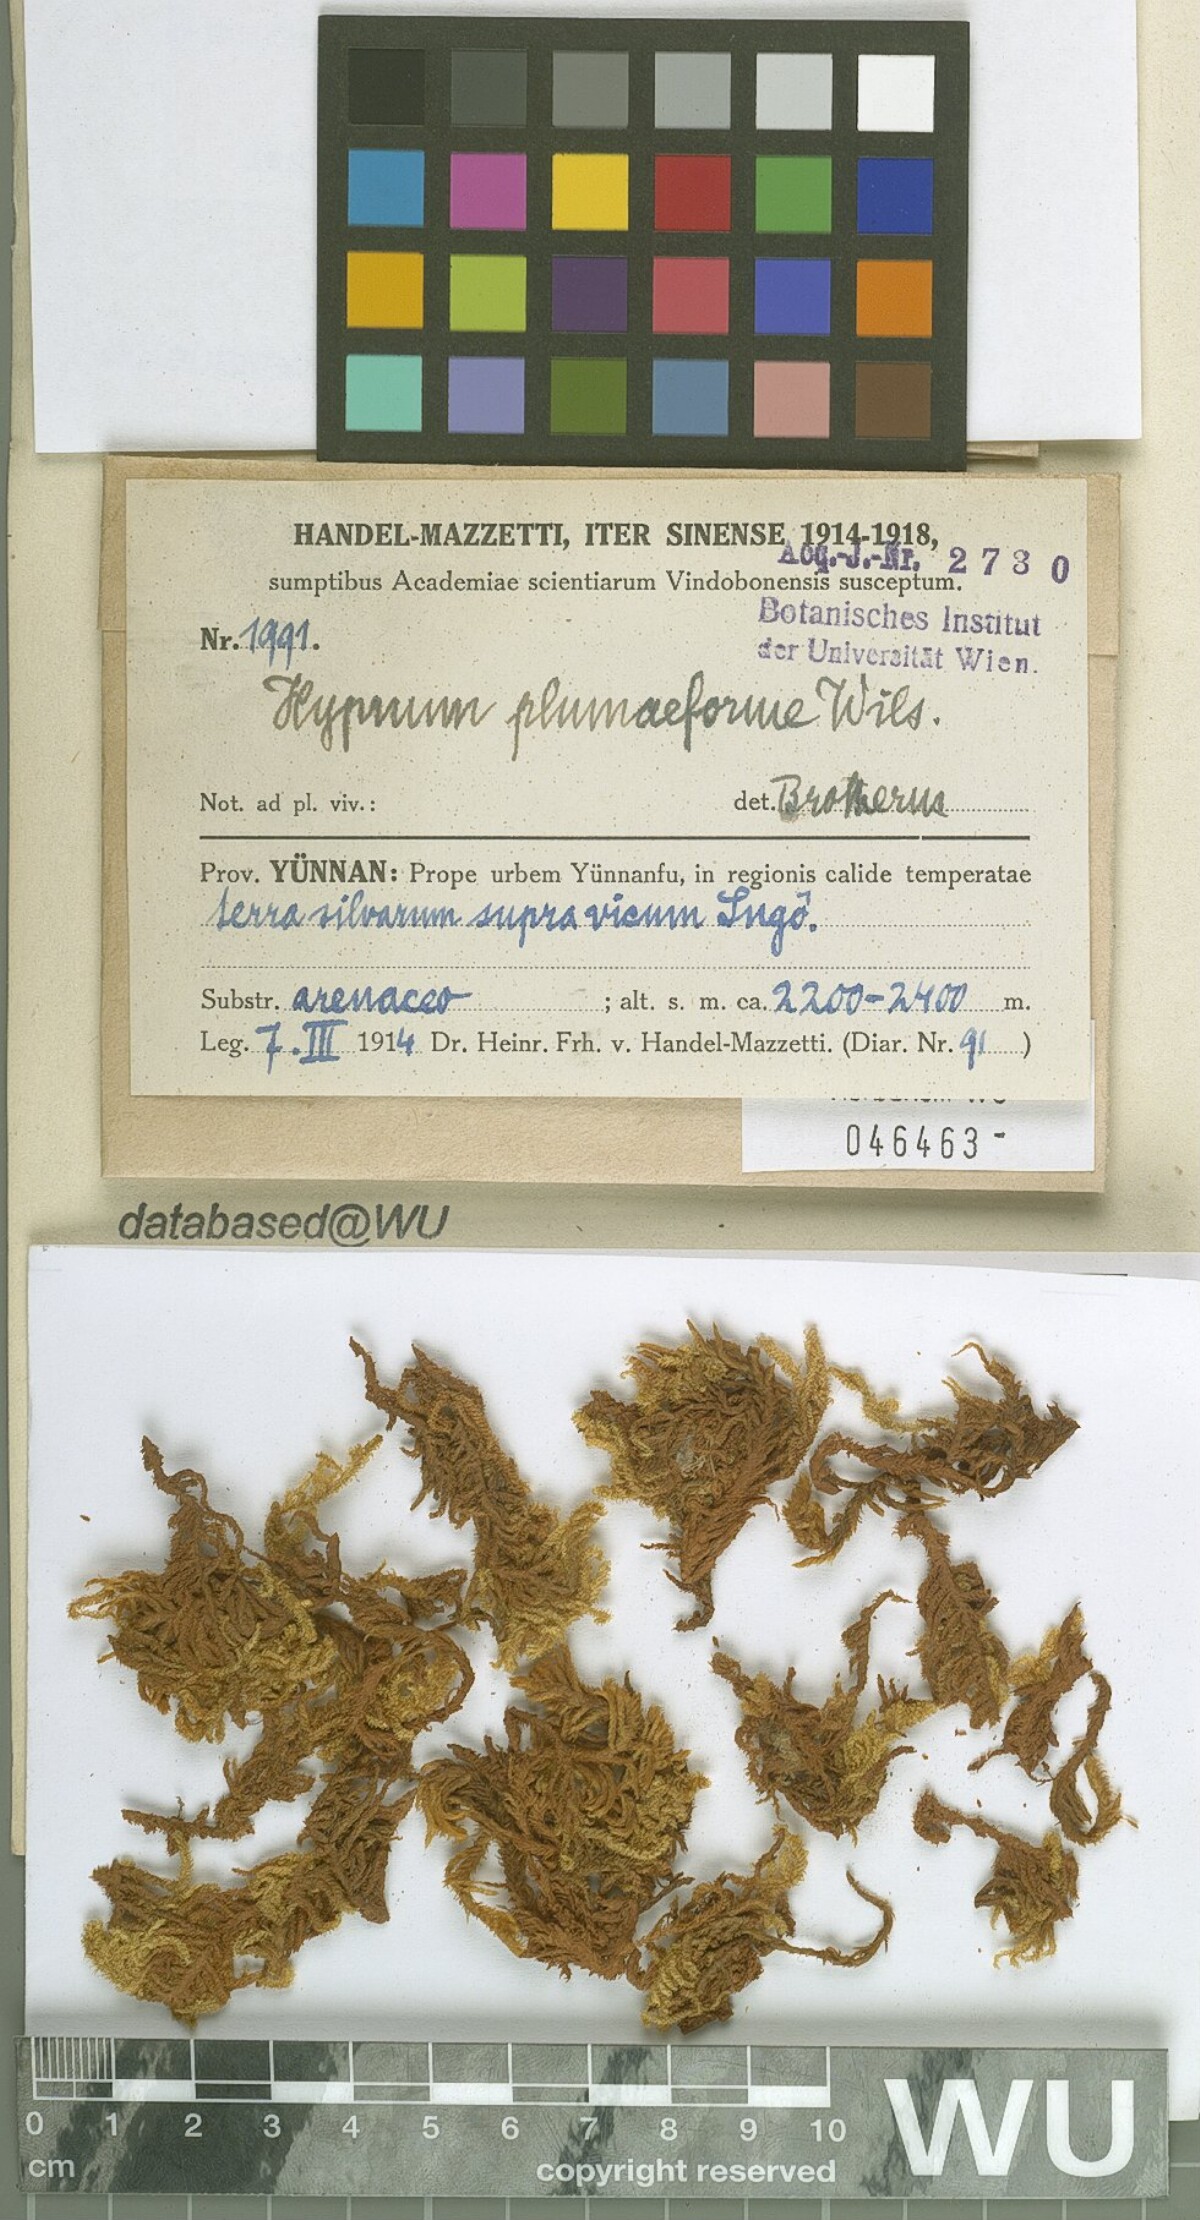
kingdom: Plantae
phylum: Bryophyta
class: Bryopsida
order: Hypnales
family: Hypnaceae
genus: Hypnum
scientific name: Hypnum plumaeforme
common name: Cypress-leaved plaitmoss
